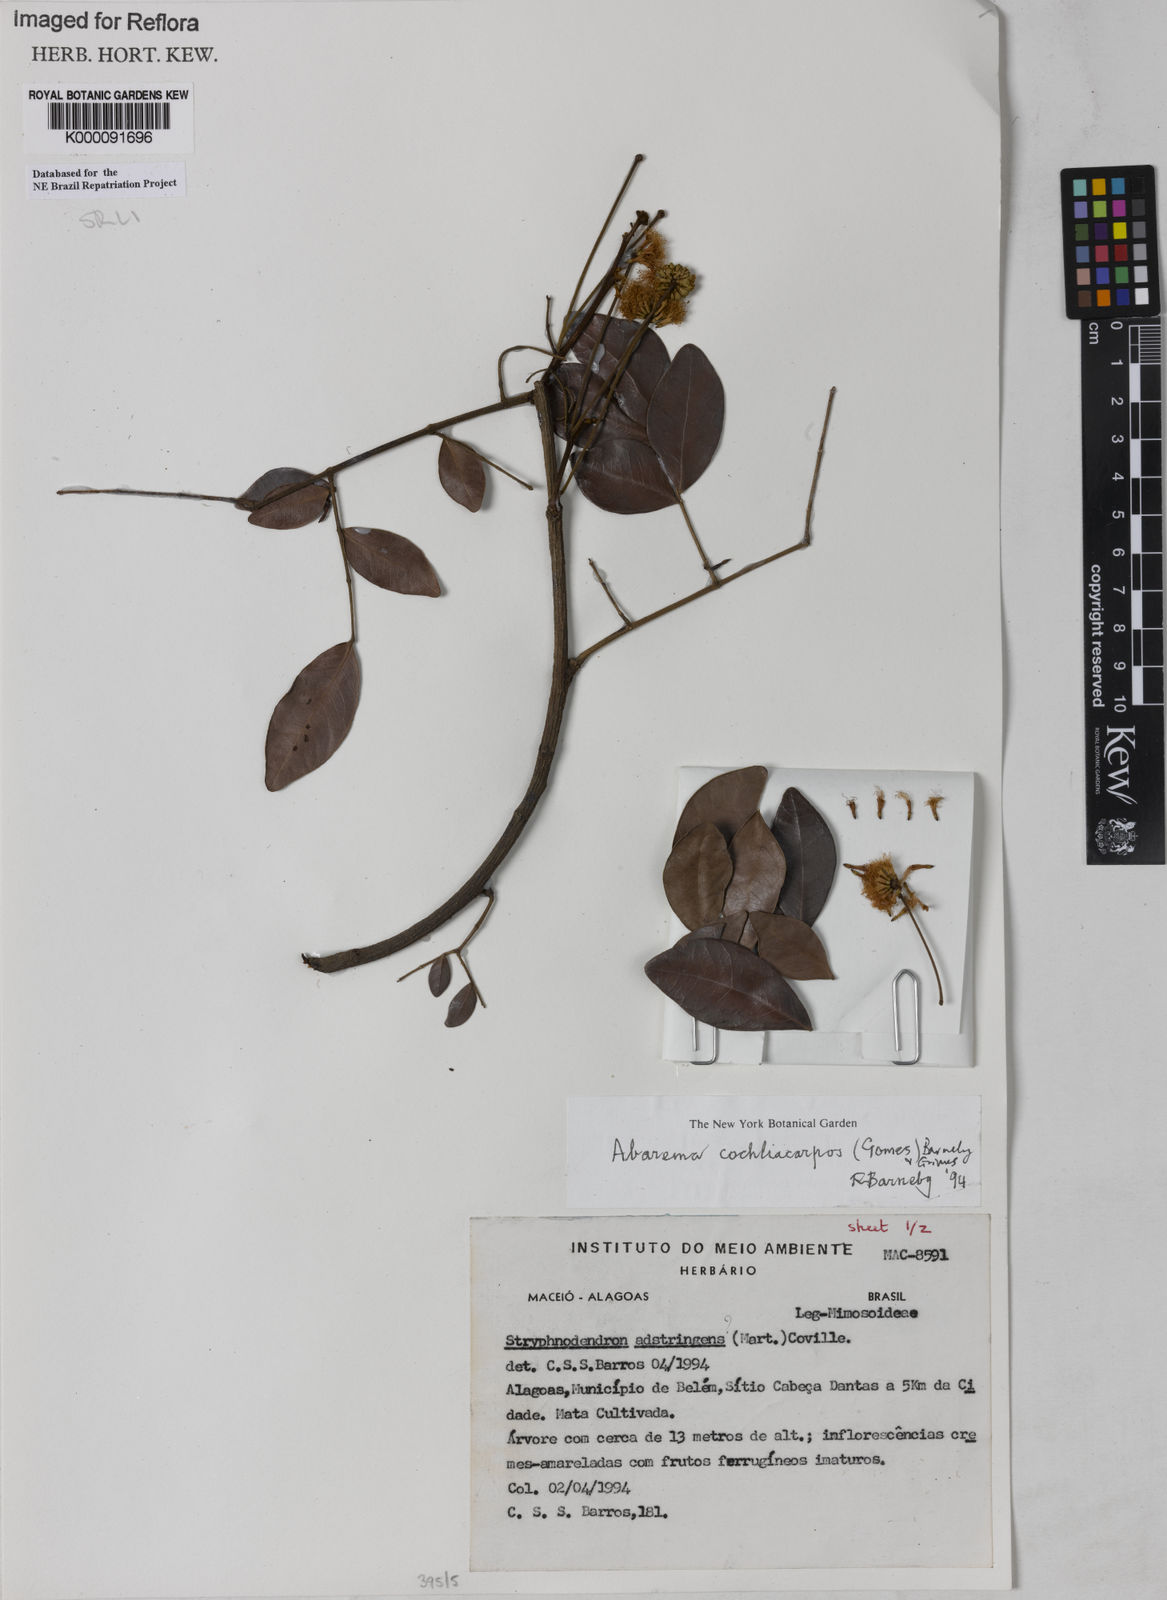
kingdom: Plantae
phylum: Tracheophyta
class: Magnoliopsida
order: Fabales
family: Fabaceae
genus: Abarema
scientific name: Abarema
